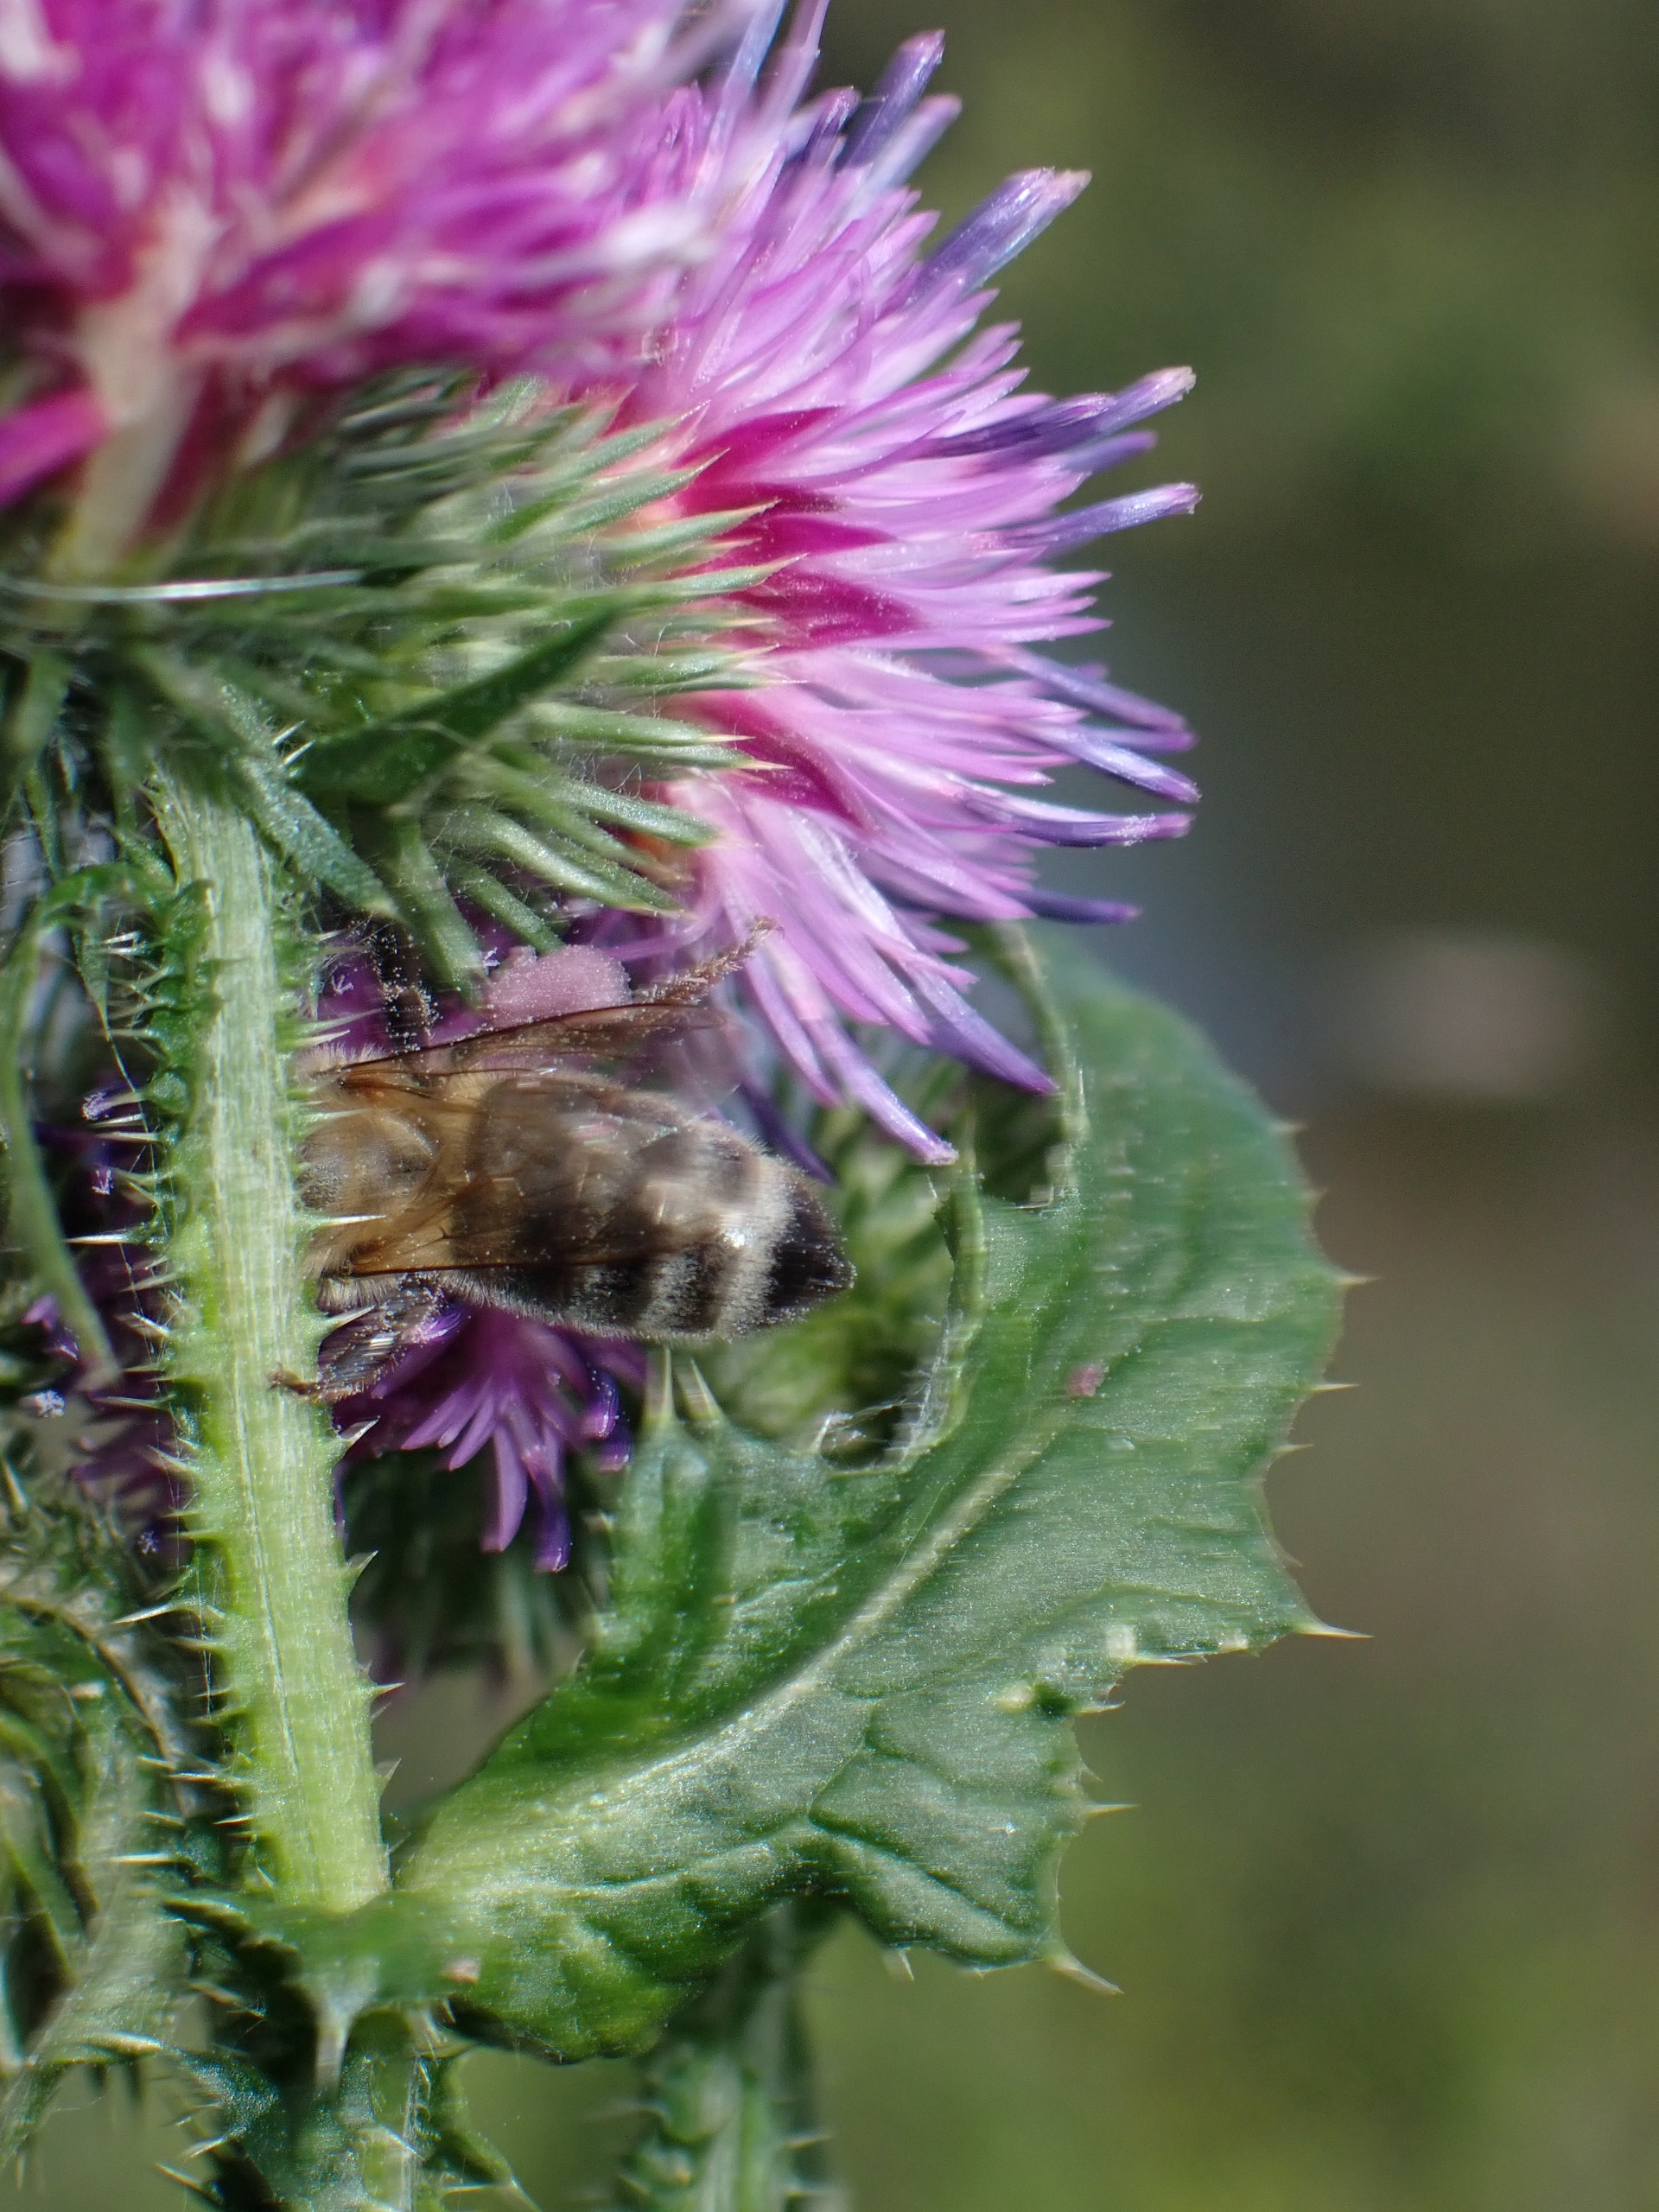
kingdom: Animalia
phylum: Arthropoda
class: Insecta
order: Hymenoptera
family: Apidae
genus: Apis
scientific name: Apis mellifera
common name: Honningbi
